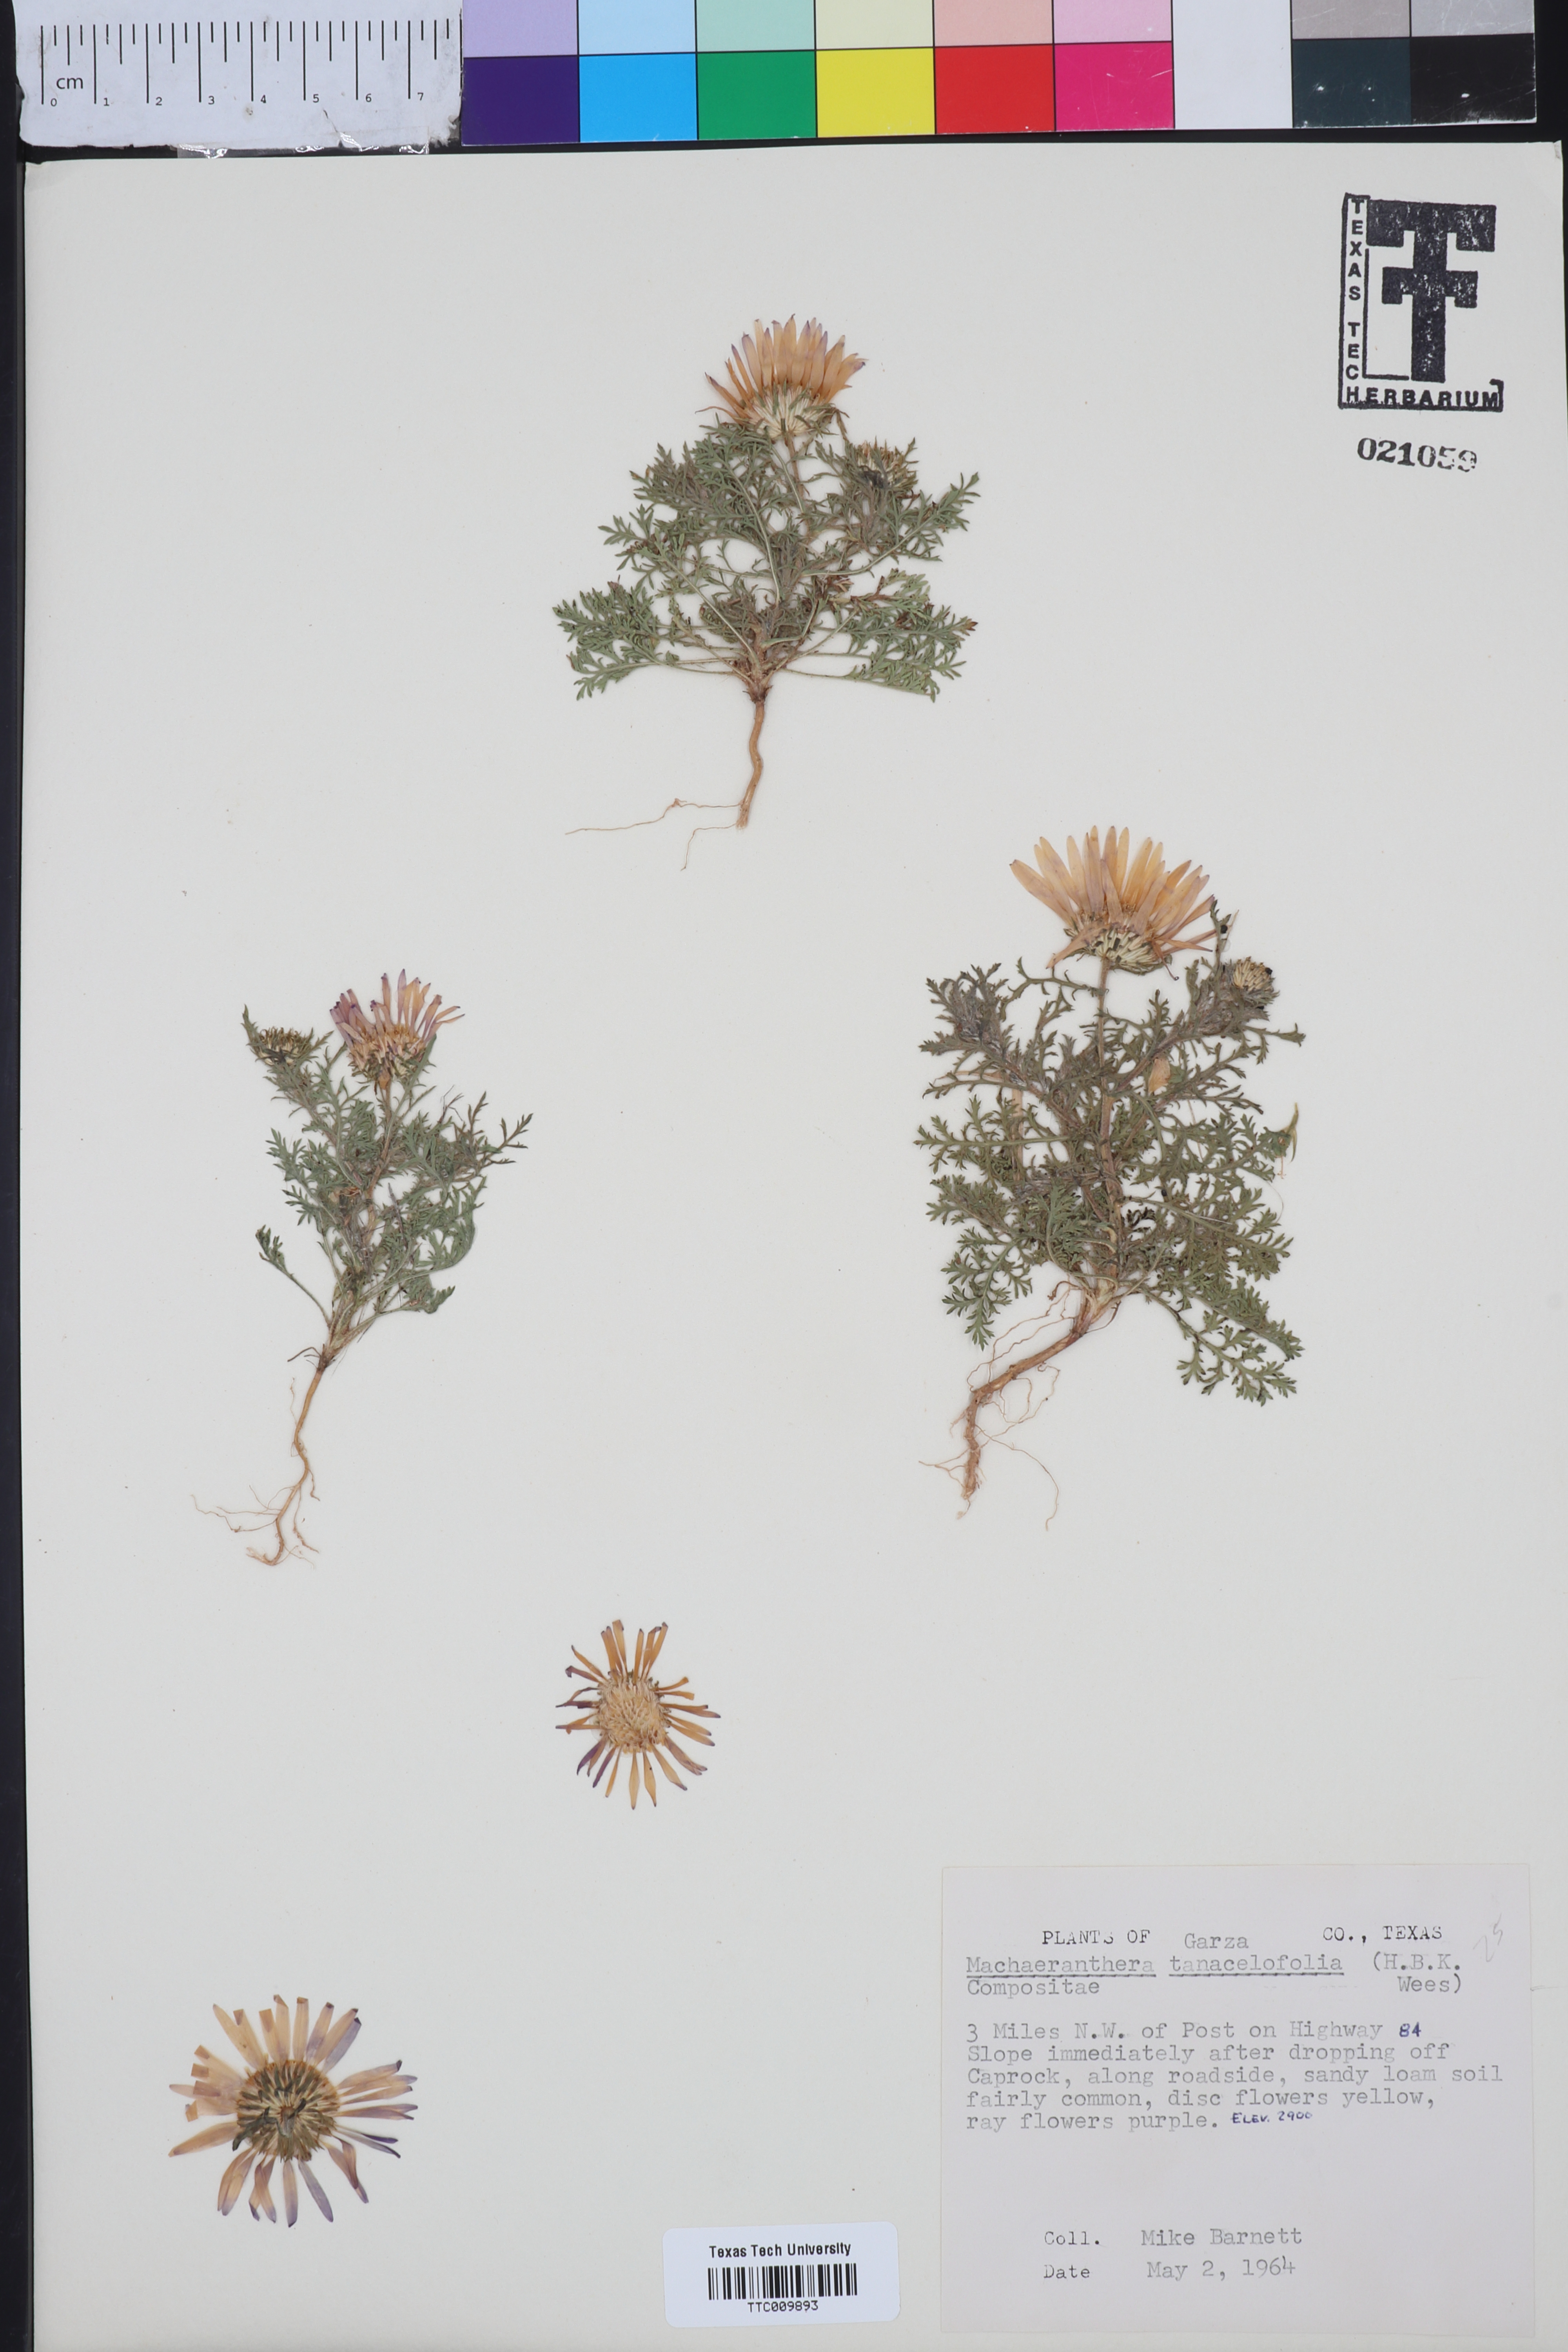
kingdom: Plantae
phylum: Tracheophyta
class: Magnoliopsida
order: Asterales
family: Asteraceae
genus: Machaeranthera
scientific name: Machaeranthera tanacetifolia
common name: Tansy-aster
